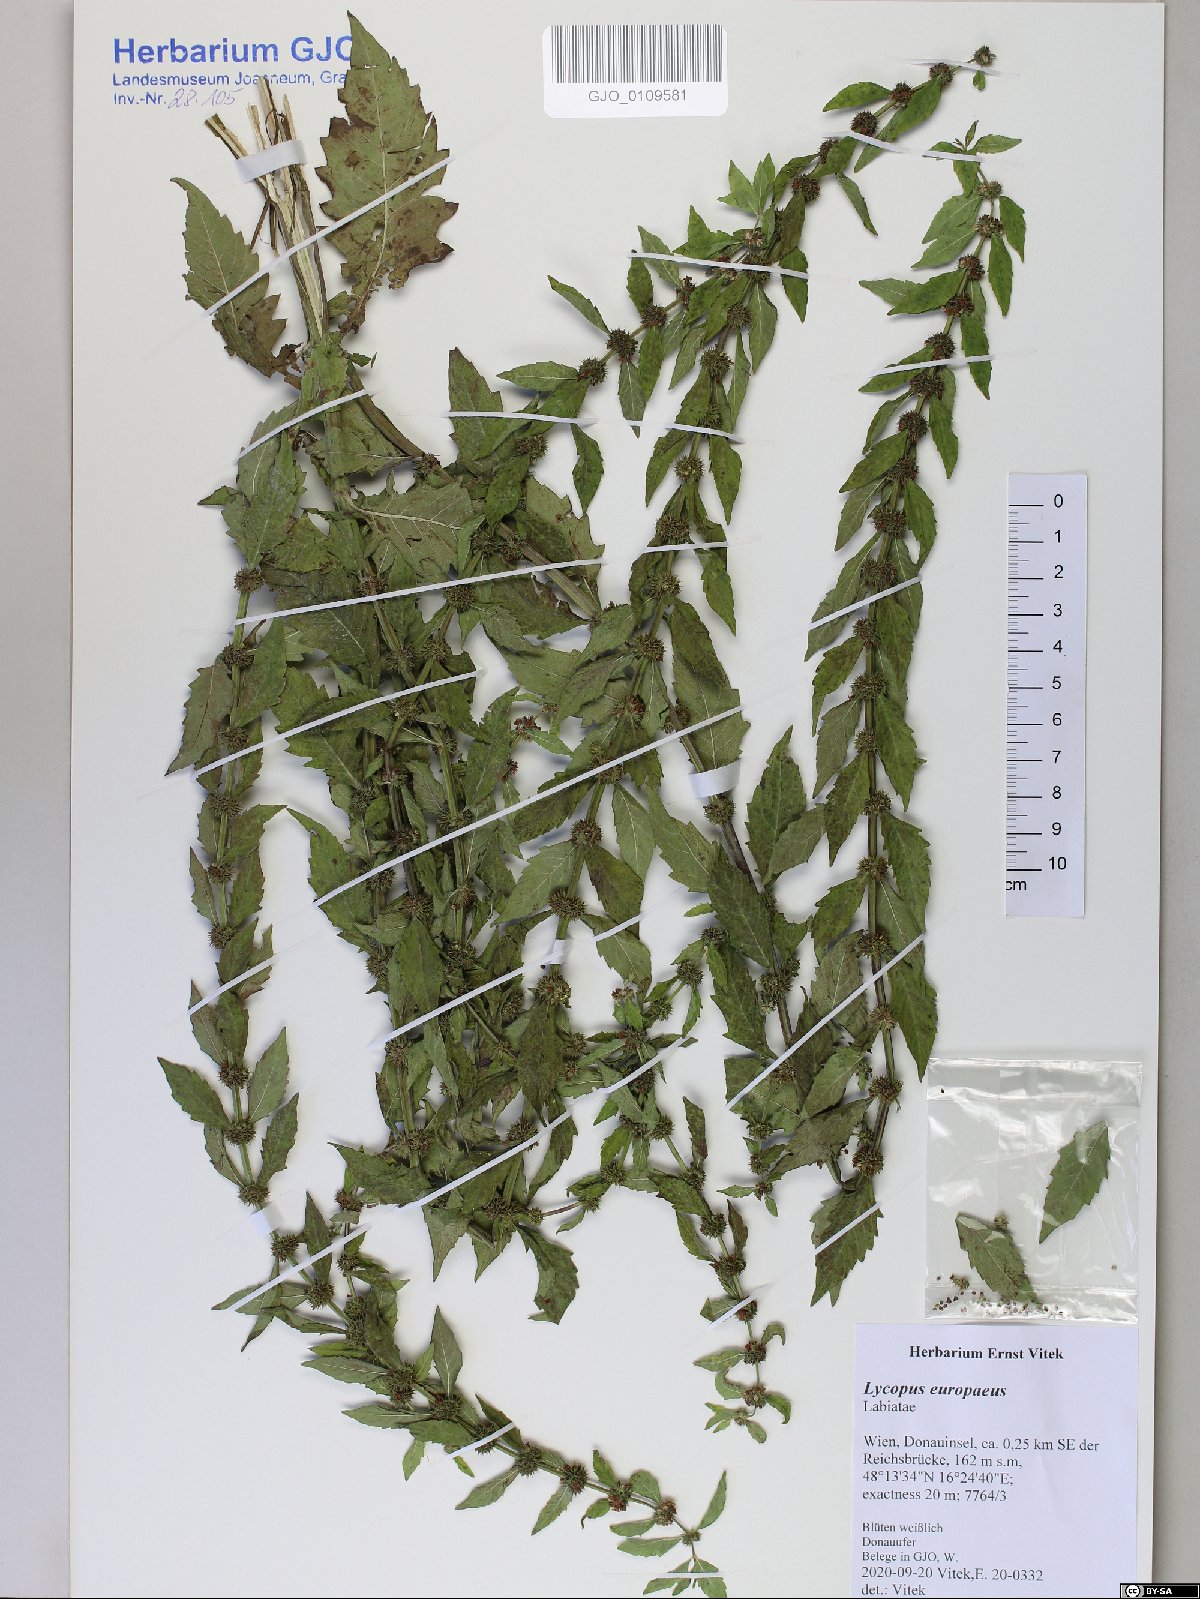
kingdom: Plantae
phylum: Tracheophyta
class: Magnoliopsida
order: Lamiales
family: Lamiaceae
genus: Lycopus
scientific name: Lycopus europaeus
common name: European bugleweed
